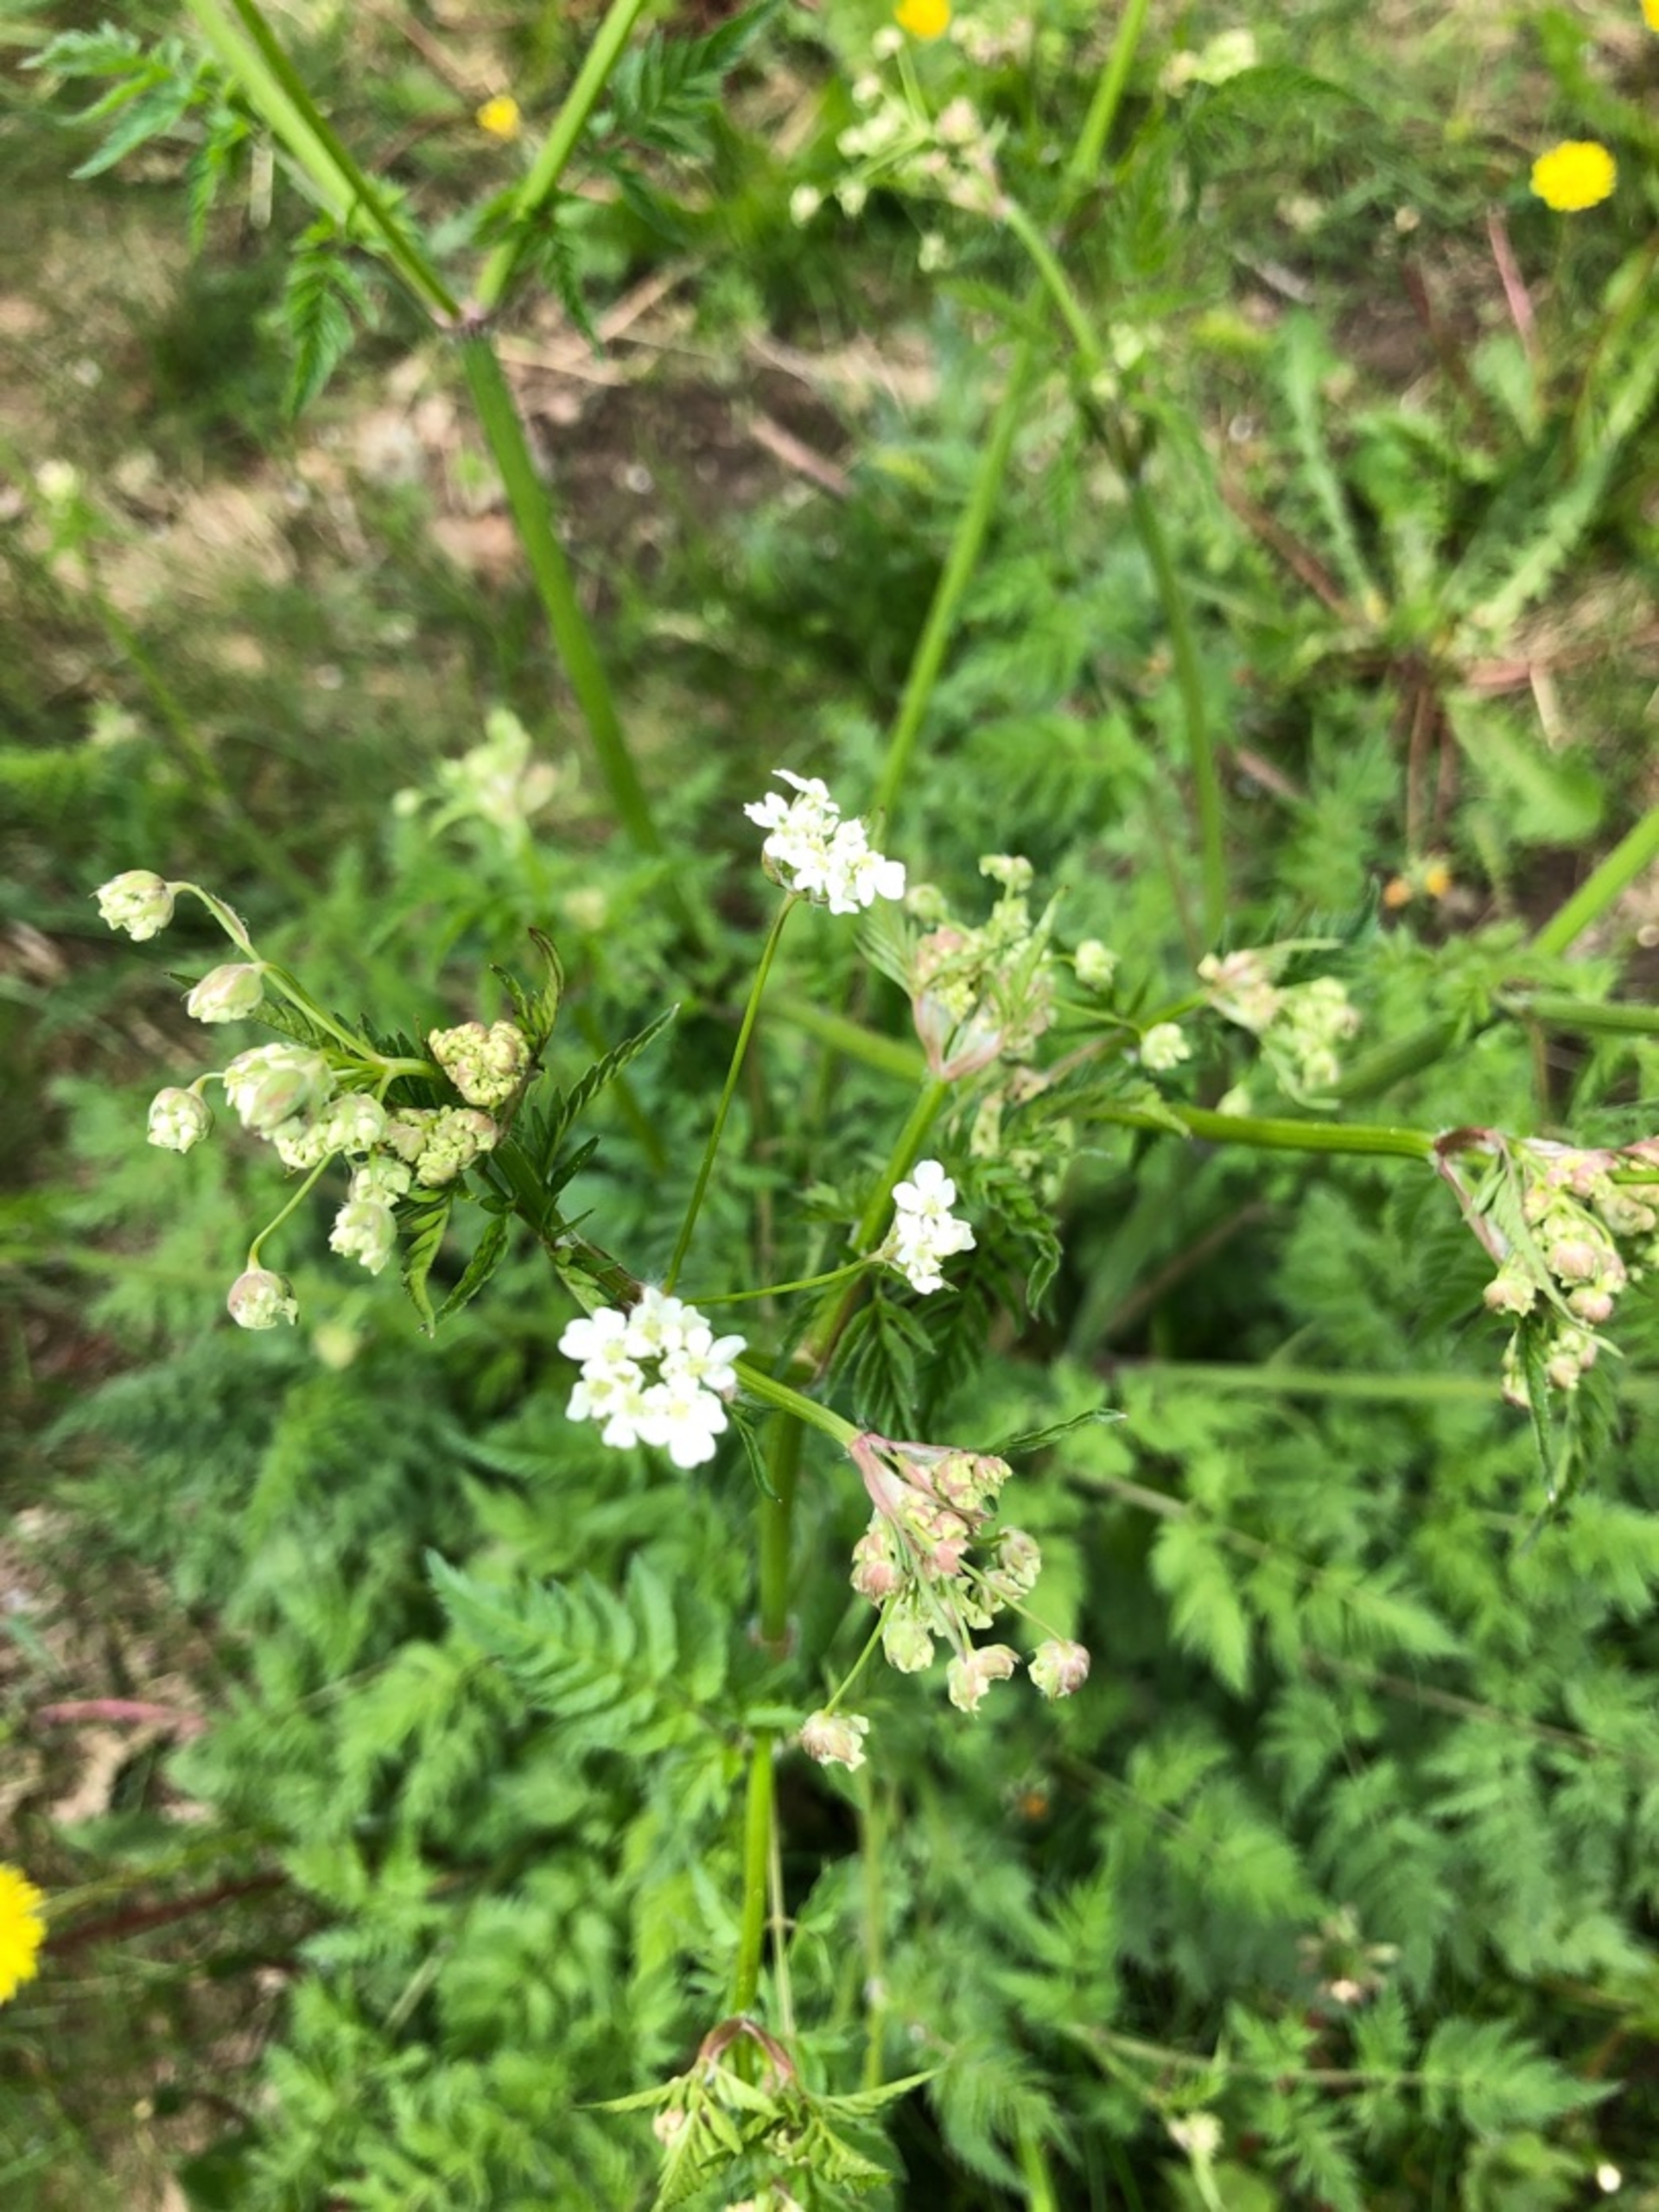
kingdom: Plantae
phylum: Tracheophyta
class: Magnoliopsida
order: Apiales
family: Apiaceae
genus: Anthriscus
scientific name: Anthriscus sylvestris
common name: Vild kørvel
